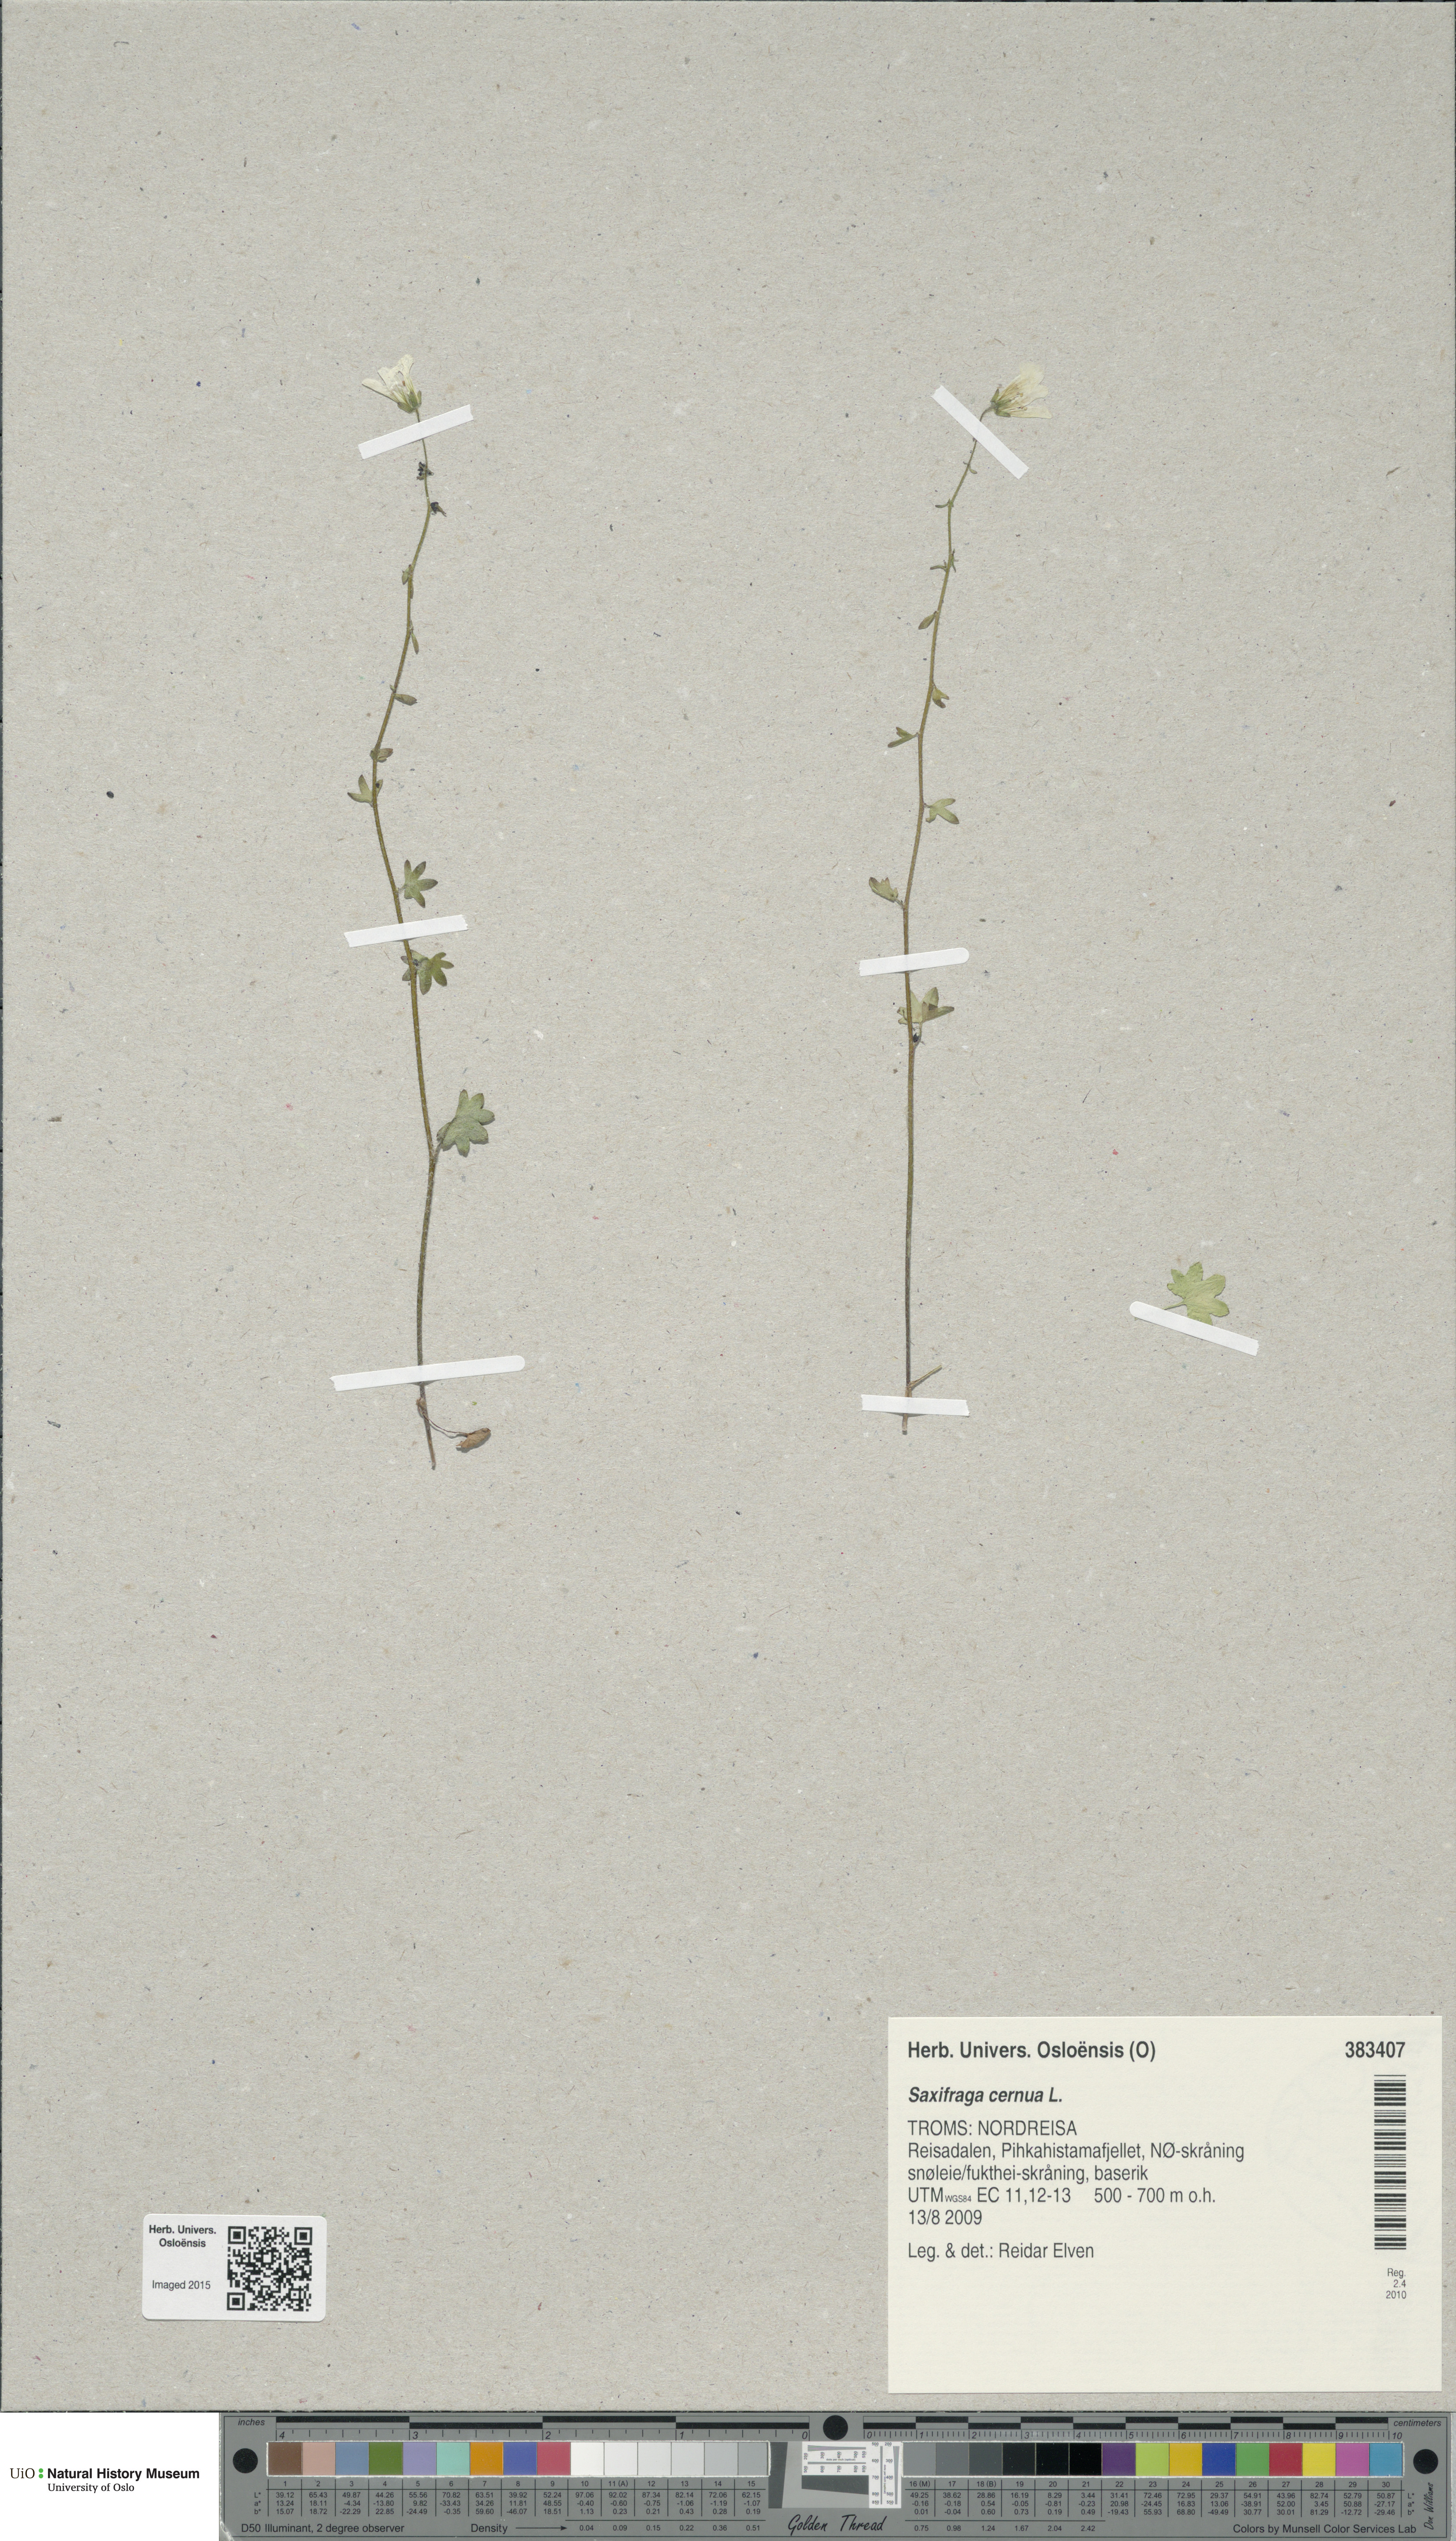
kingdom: Plantae
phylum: Tracheophyta
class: Magnoliopsida
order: Saxifragales
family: Saxifragaceae
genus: Saxifraga
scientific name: Saxifraga cernua
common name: Drooping saxifrage
